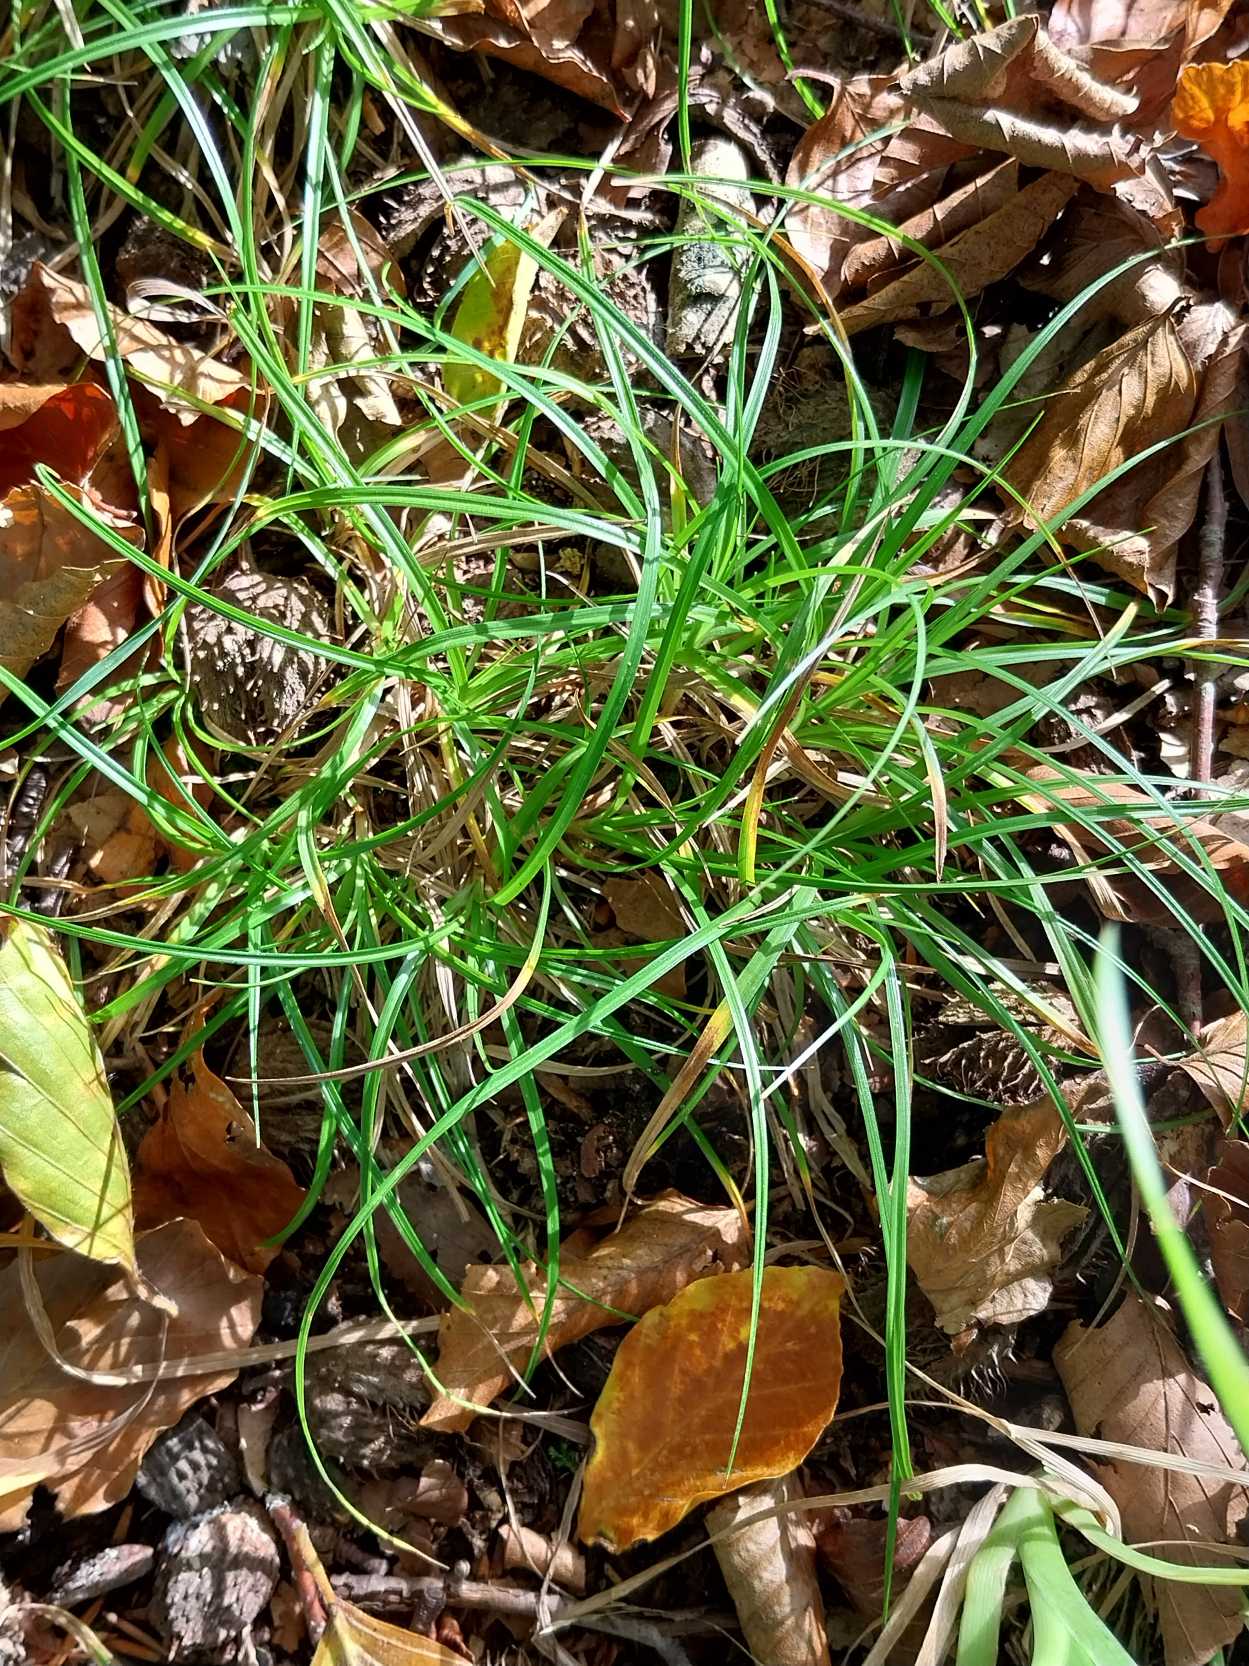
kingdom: Plantae
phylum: Tracheophyta
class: Liliopsida
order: Poales
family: Cyperaceae
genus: Carex
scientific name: Carex pilulifera
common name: Pille-star
